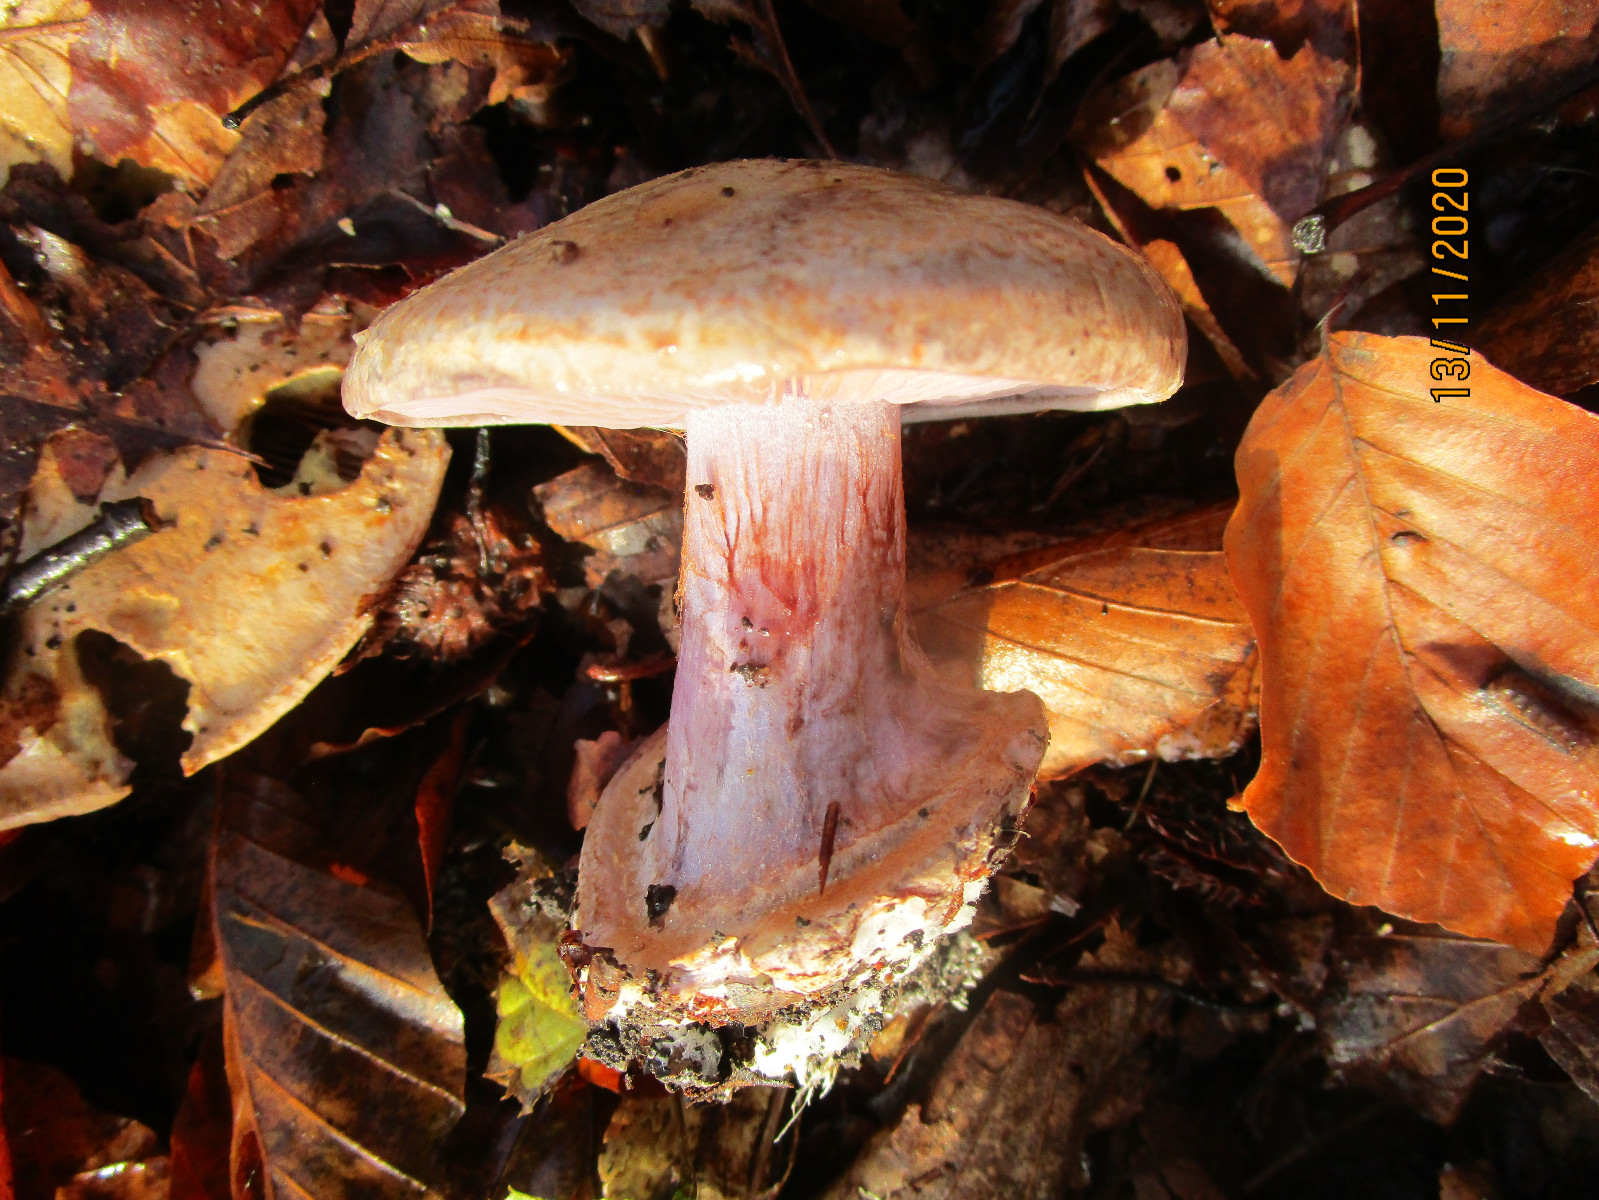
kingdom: Fungi
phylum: Basidiomycota
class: Agaricomycetes
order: Agaricales
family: Cortinariaceae
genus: Calonarius
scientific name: Calonarius violaceipes
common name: stedmoder-slørhat
